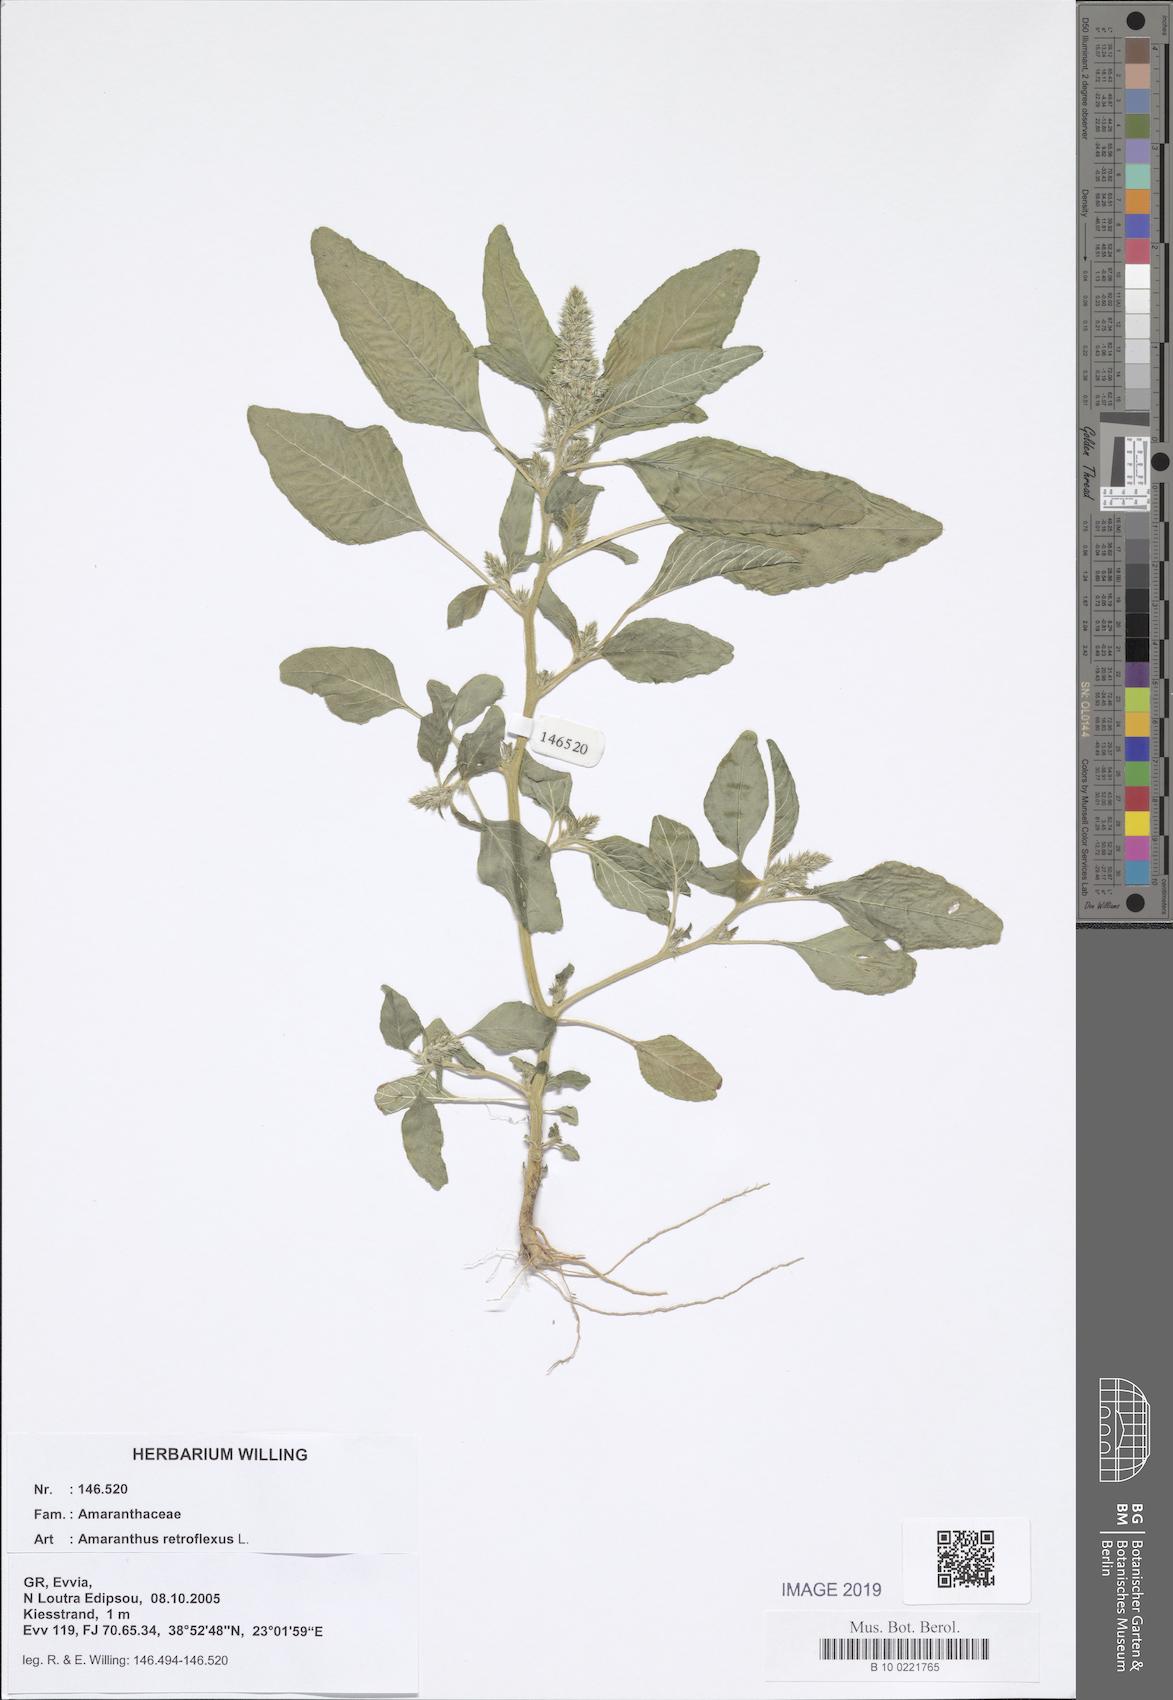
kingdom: Plantae
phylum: Tracheophyta
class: Magnoliopsida
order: Caryophyllales
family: Amaranthaceae
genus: Amaranthus
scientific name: Amaranthus retroflexus
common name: Redroot amaranth
